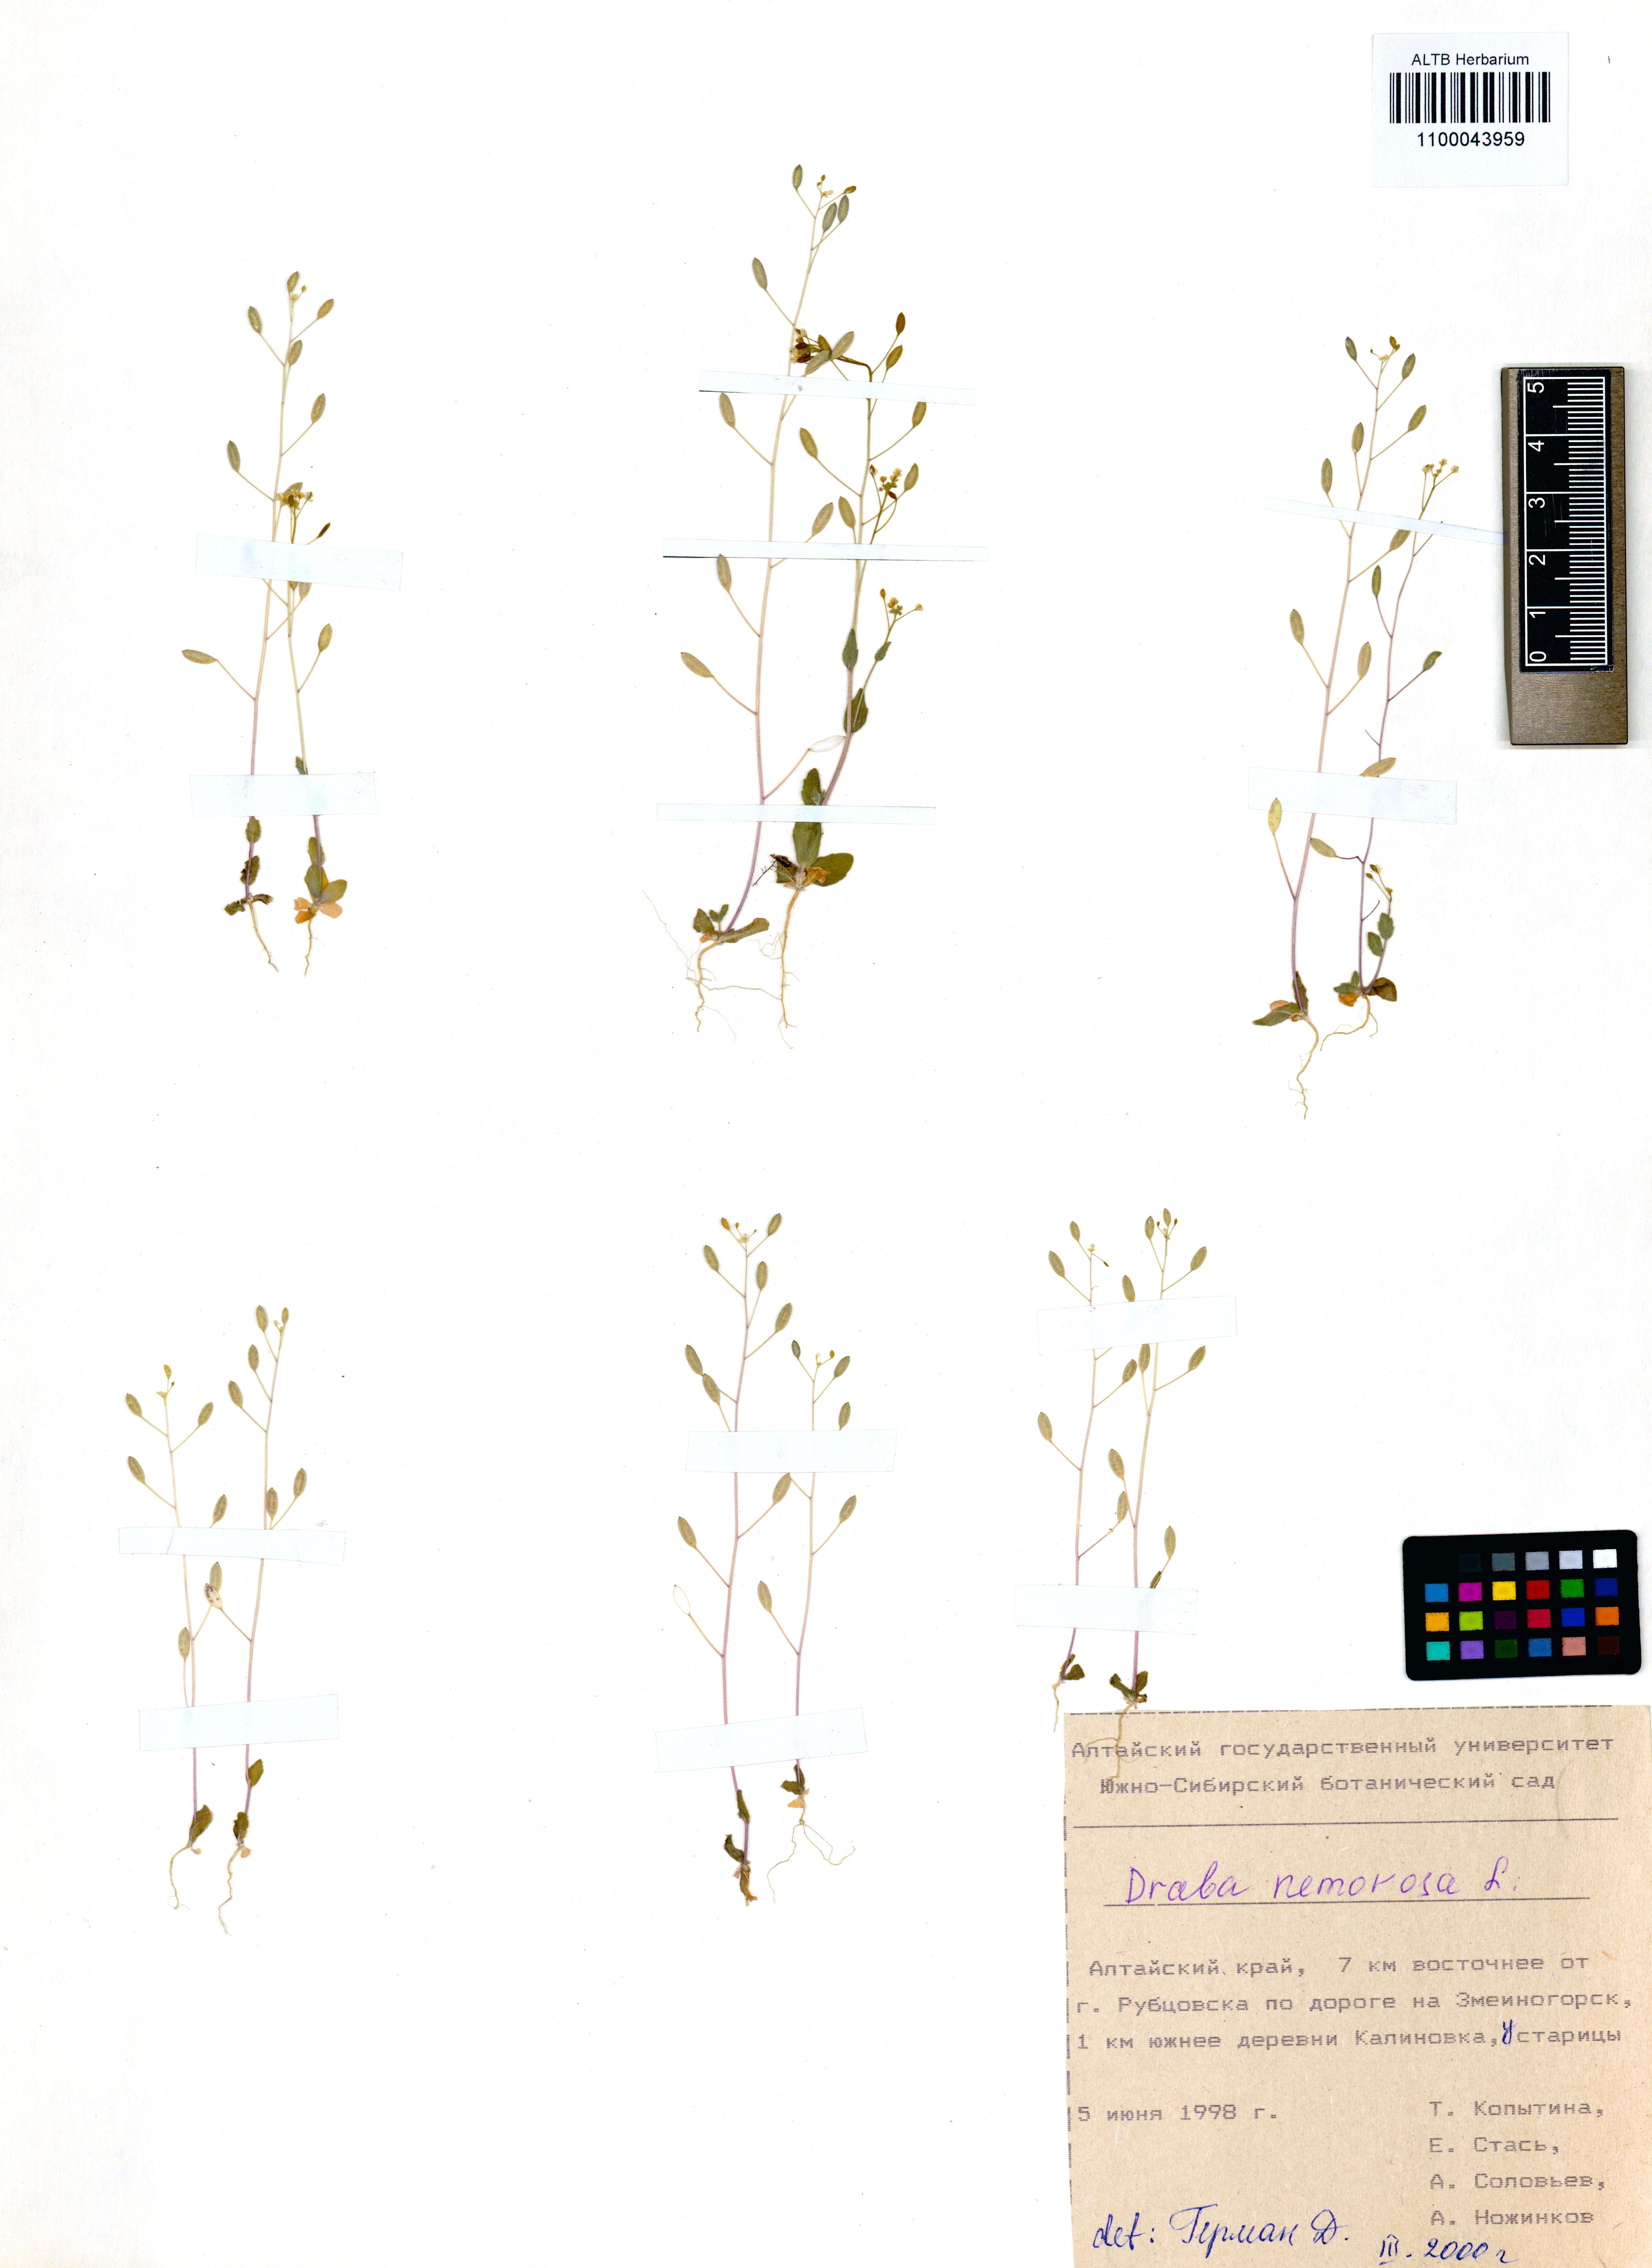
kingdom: Plantae
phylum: Tracheophyta
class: Magnoliopsida
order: Brassicales
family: Brassicaceae
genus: Draba
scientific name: Draba nemorosa
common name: Wood whitlow-grass
